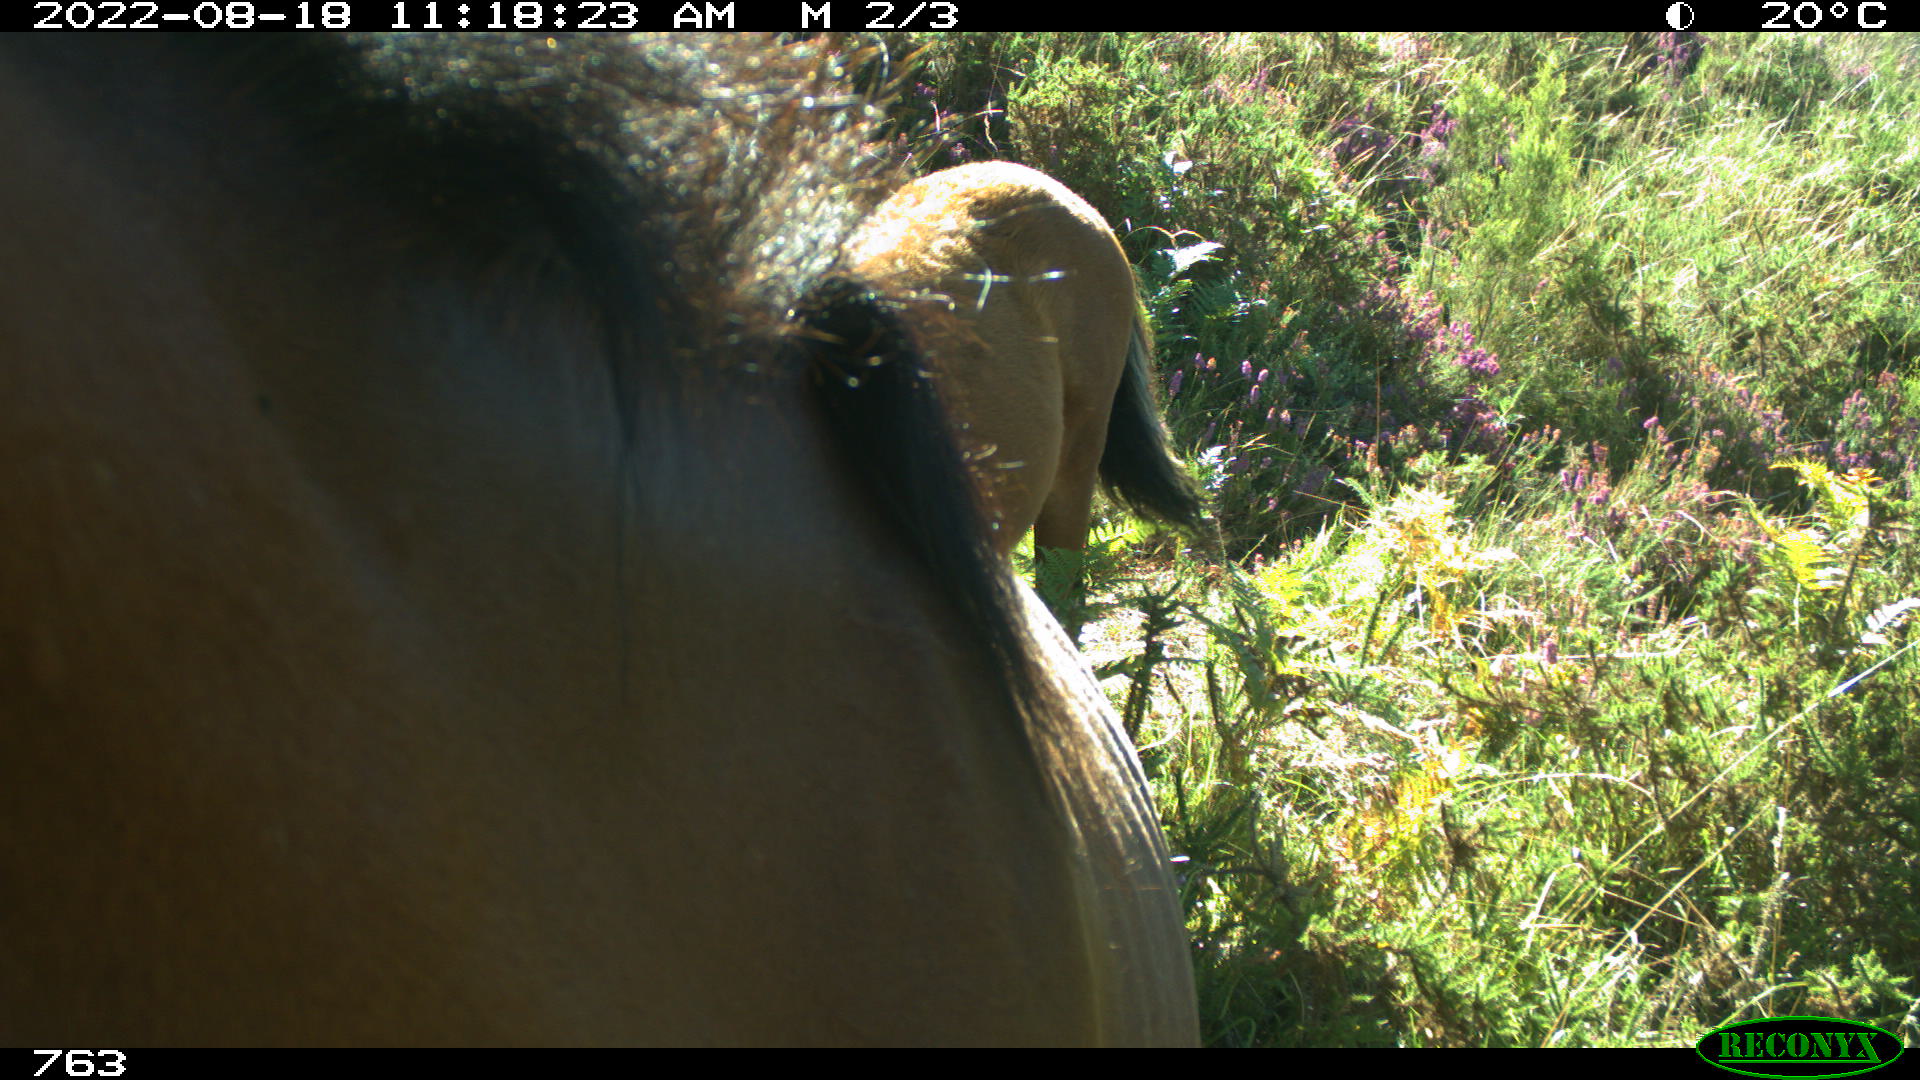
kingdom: Animalia
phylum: Chordata
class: Mammalia
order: Perissodactyla
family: Equidae
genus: Equus
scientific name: Equus caballus
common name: Horse
